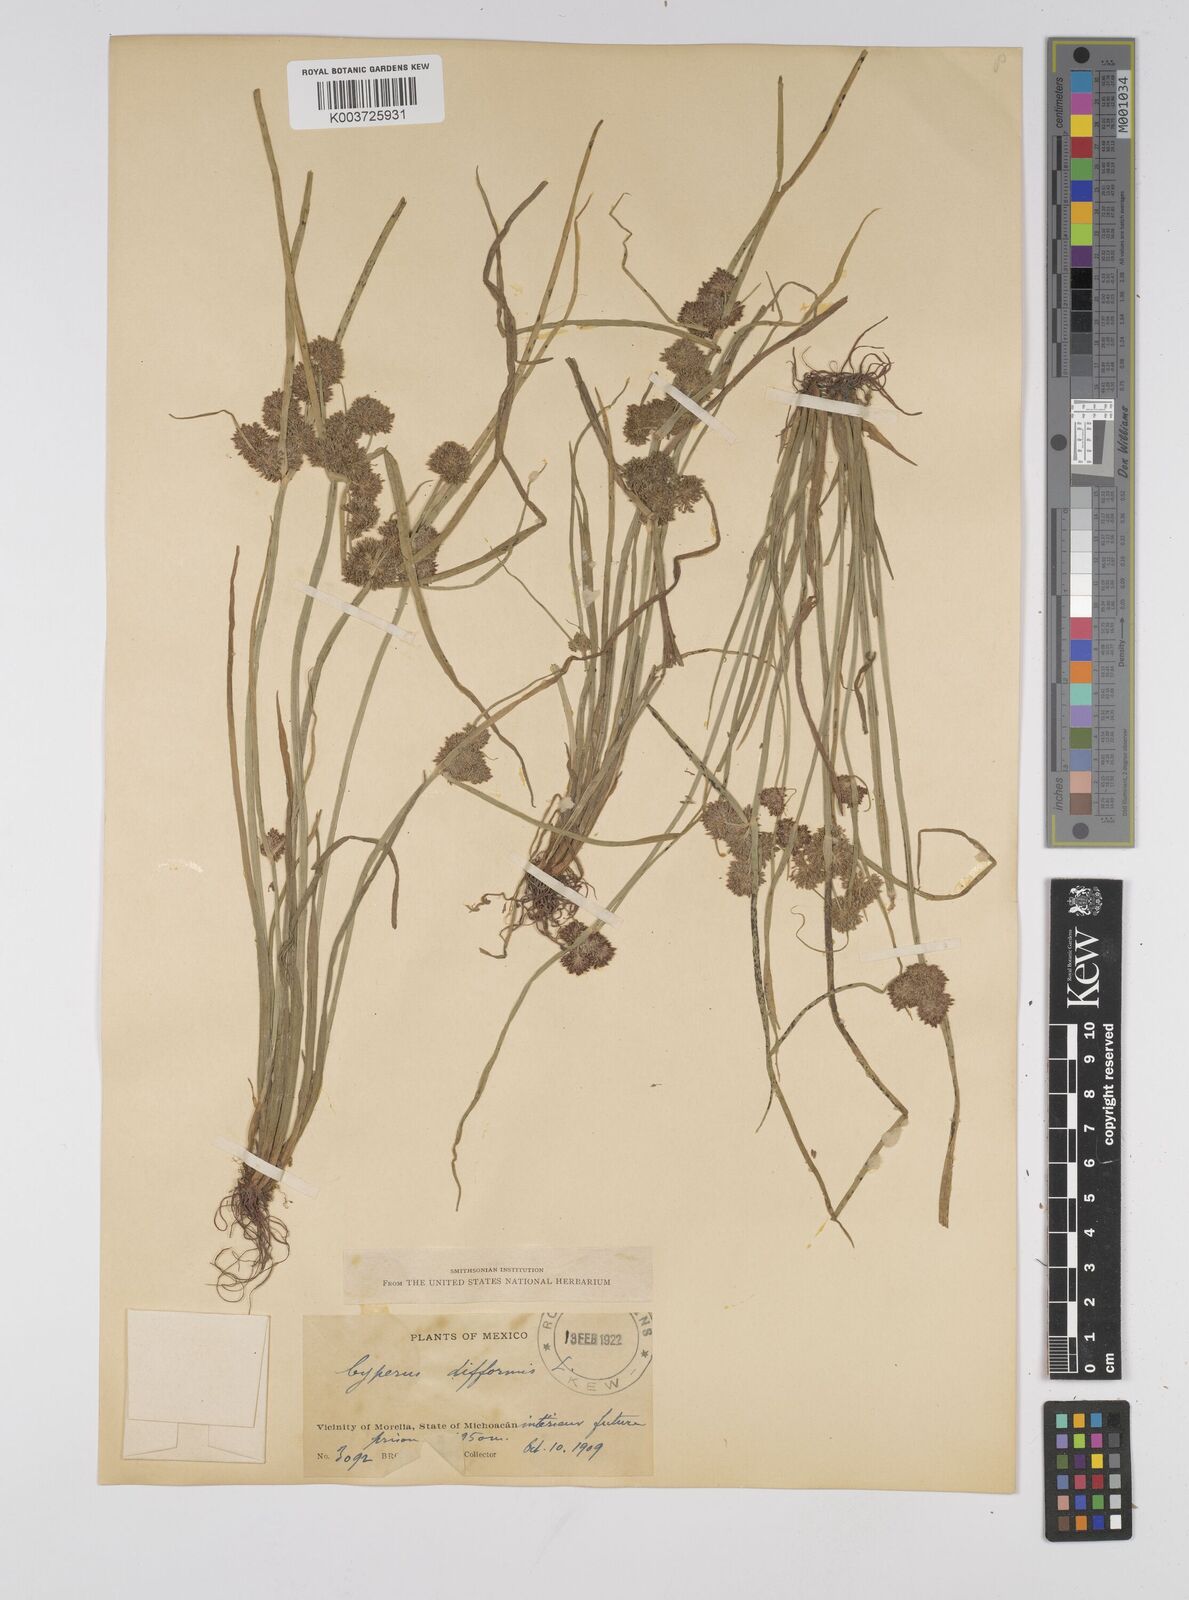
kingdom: Plantae
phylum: Tracheophyta
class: Liliopsida
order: Poales
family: Cyperaceae
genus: Cyperus
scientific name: Cyperus difformis
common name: Variable flatsedge
